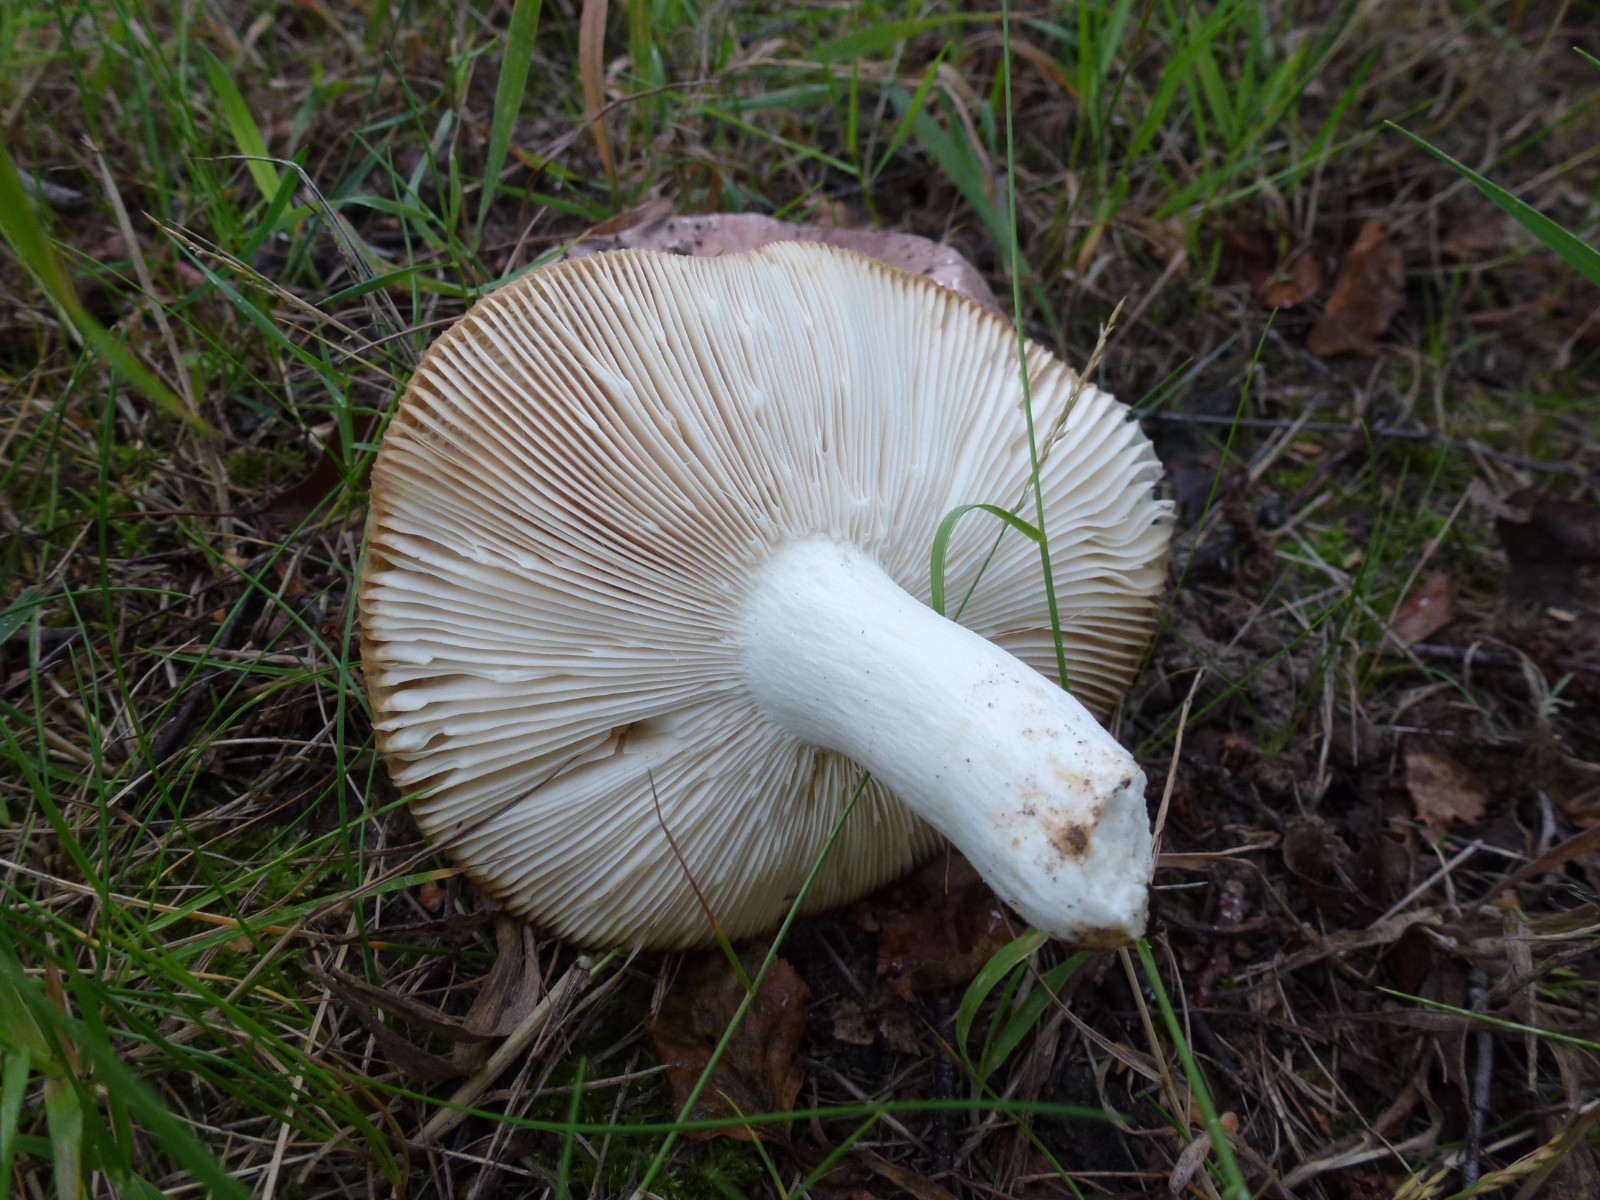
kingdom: Fungi
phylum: Basidiomycota
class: Agaricomycetes
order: Russulales
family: Russulaceae
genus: Russula
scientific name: Russula
